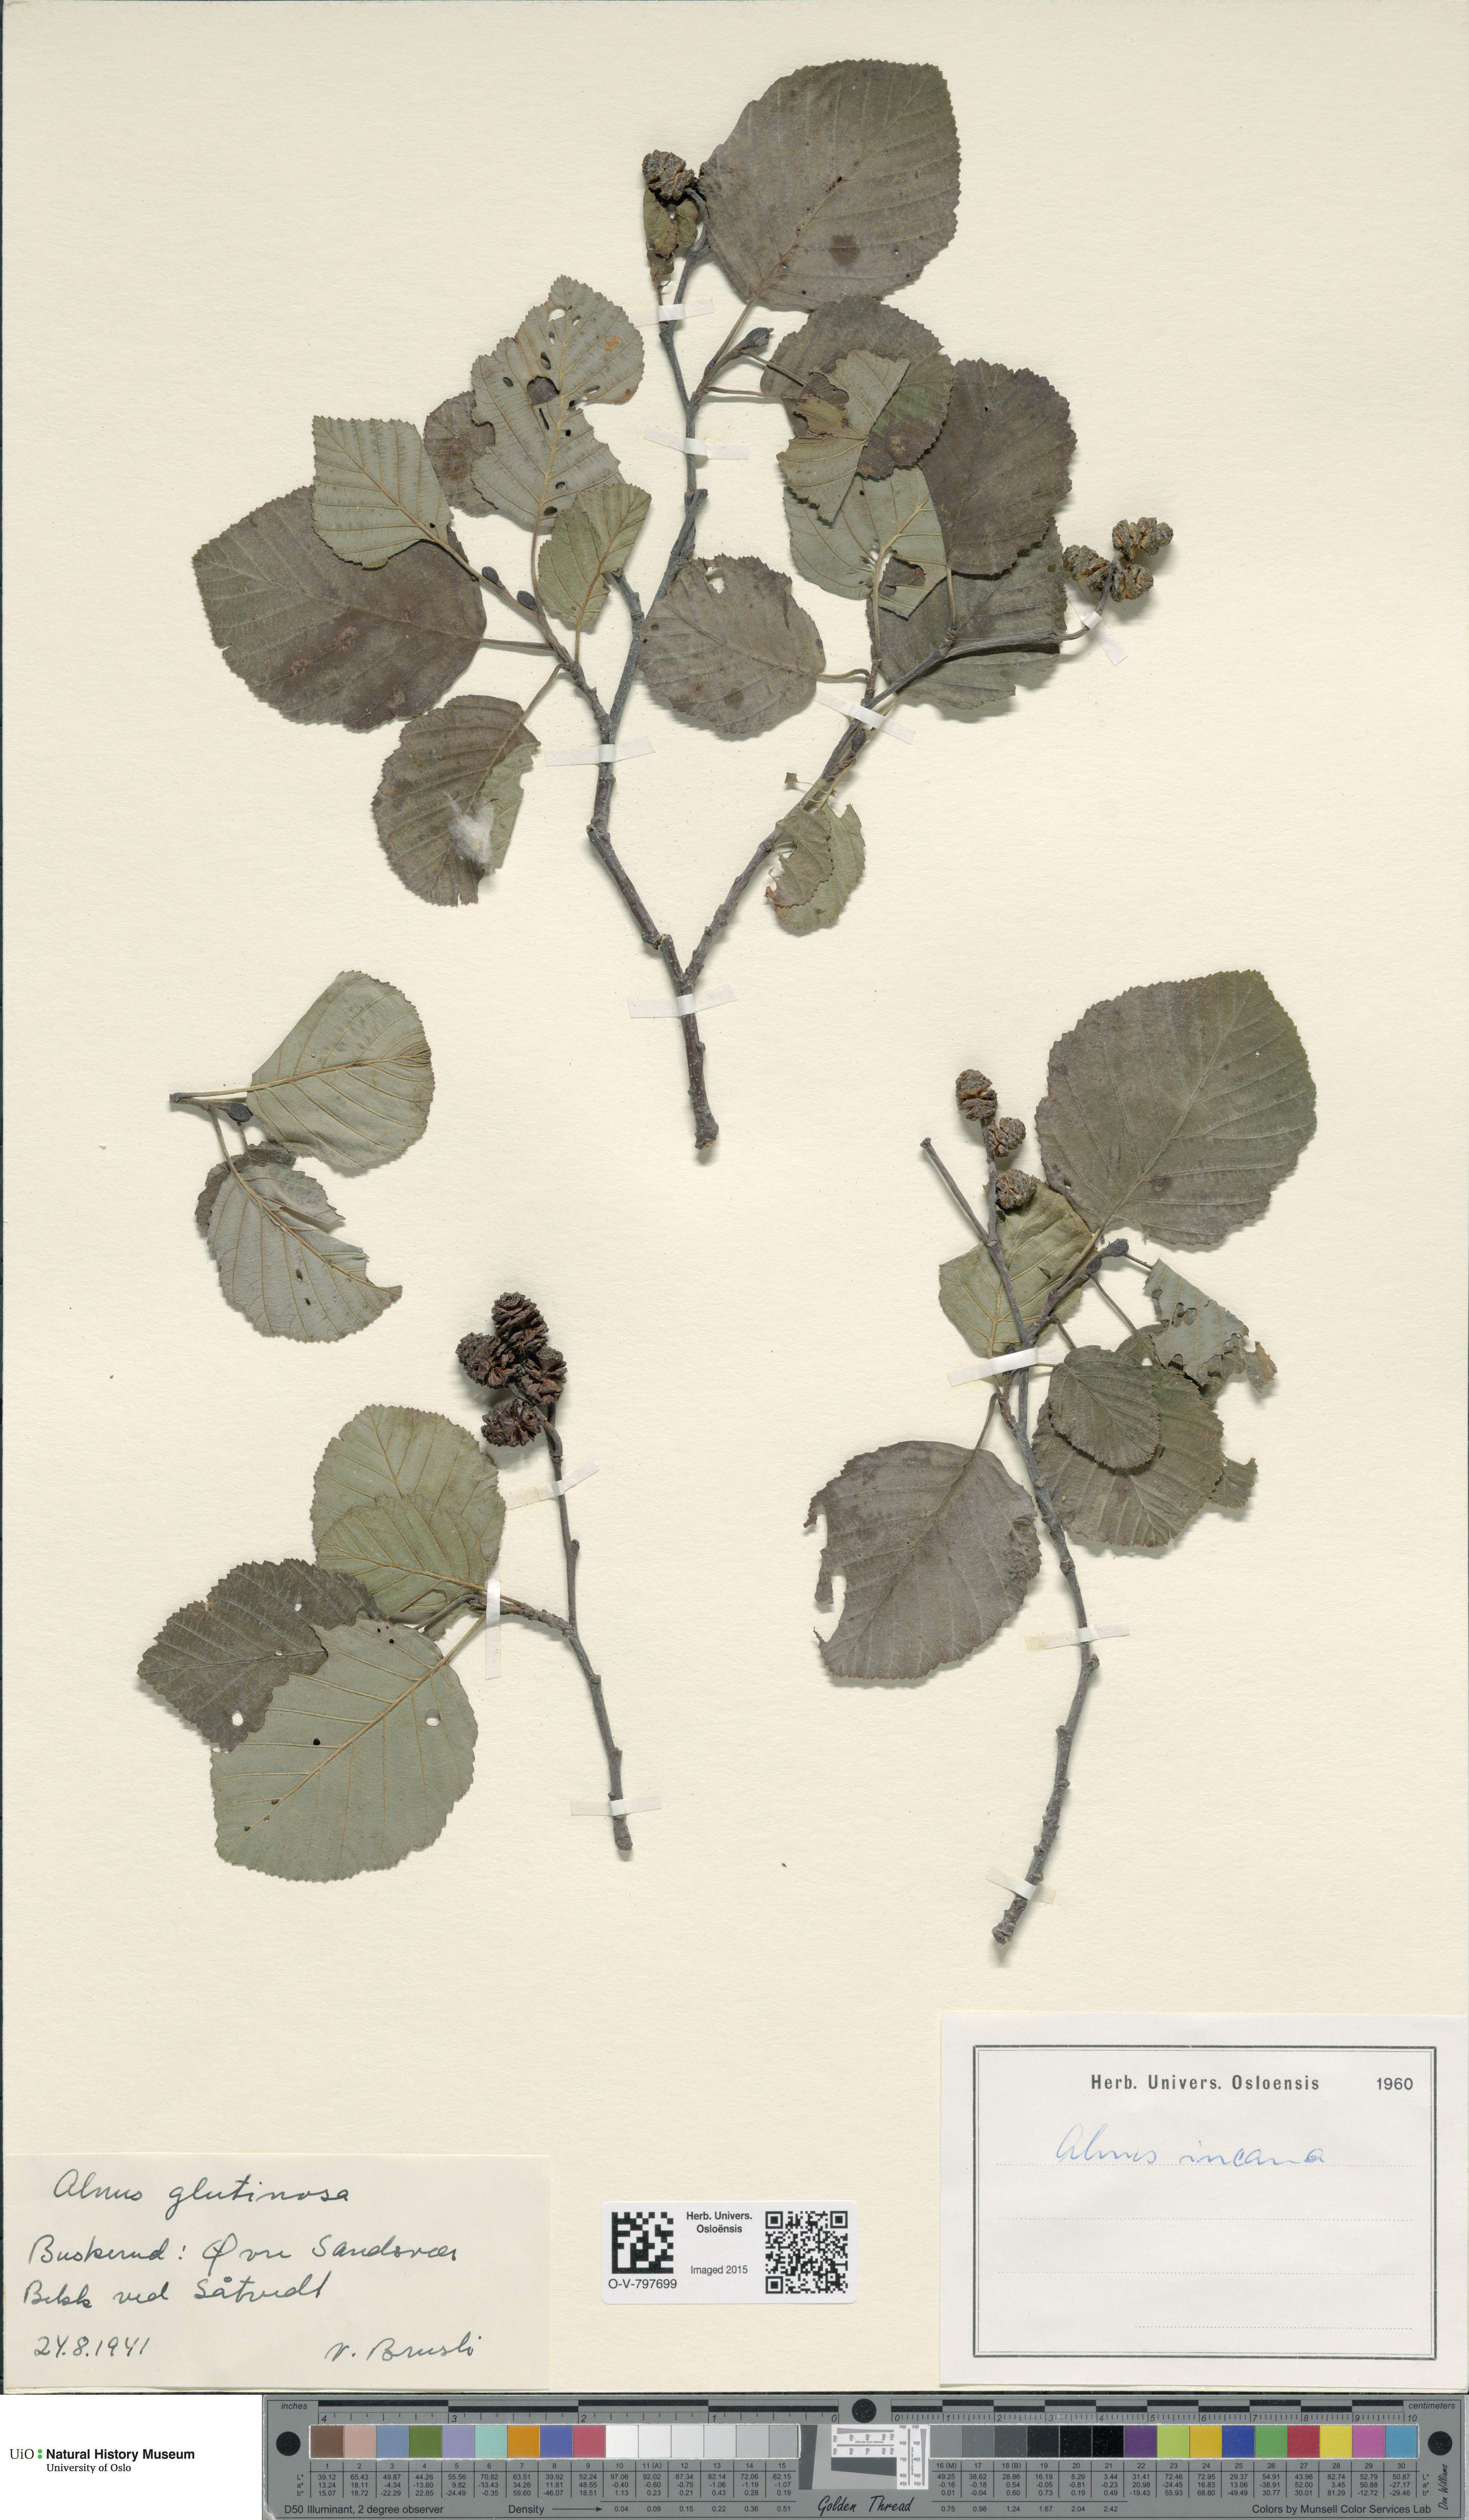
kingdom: Plantae
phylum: Tracheophyta
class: Magnoliopsida
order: Fagales
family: Betulaceae
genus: Alnus
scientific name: Alnus incana
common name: Grey alder
